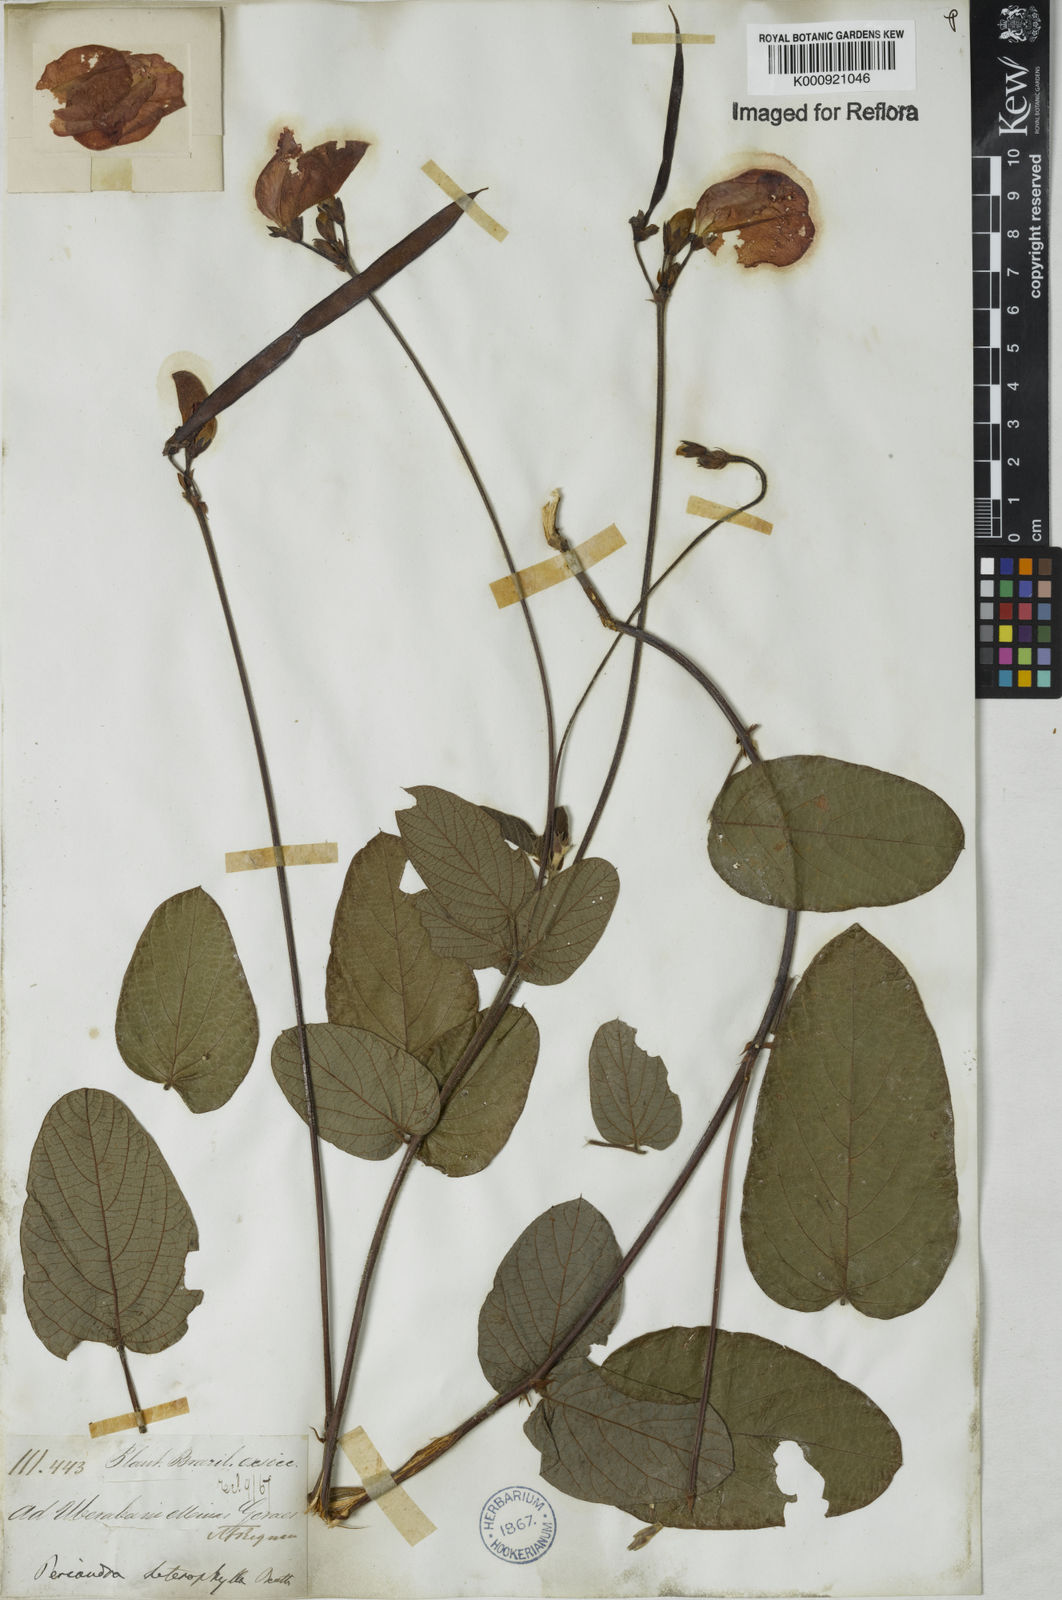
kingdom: Plantae
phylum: Tracheophyta
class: Magnoliopsida
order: Fabales
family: Fabaceae
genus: Periandra
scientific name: Periandra heterophylla
